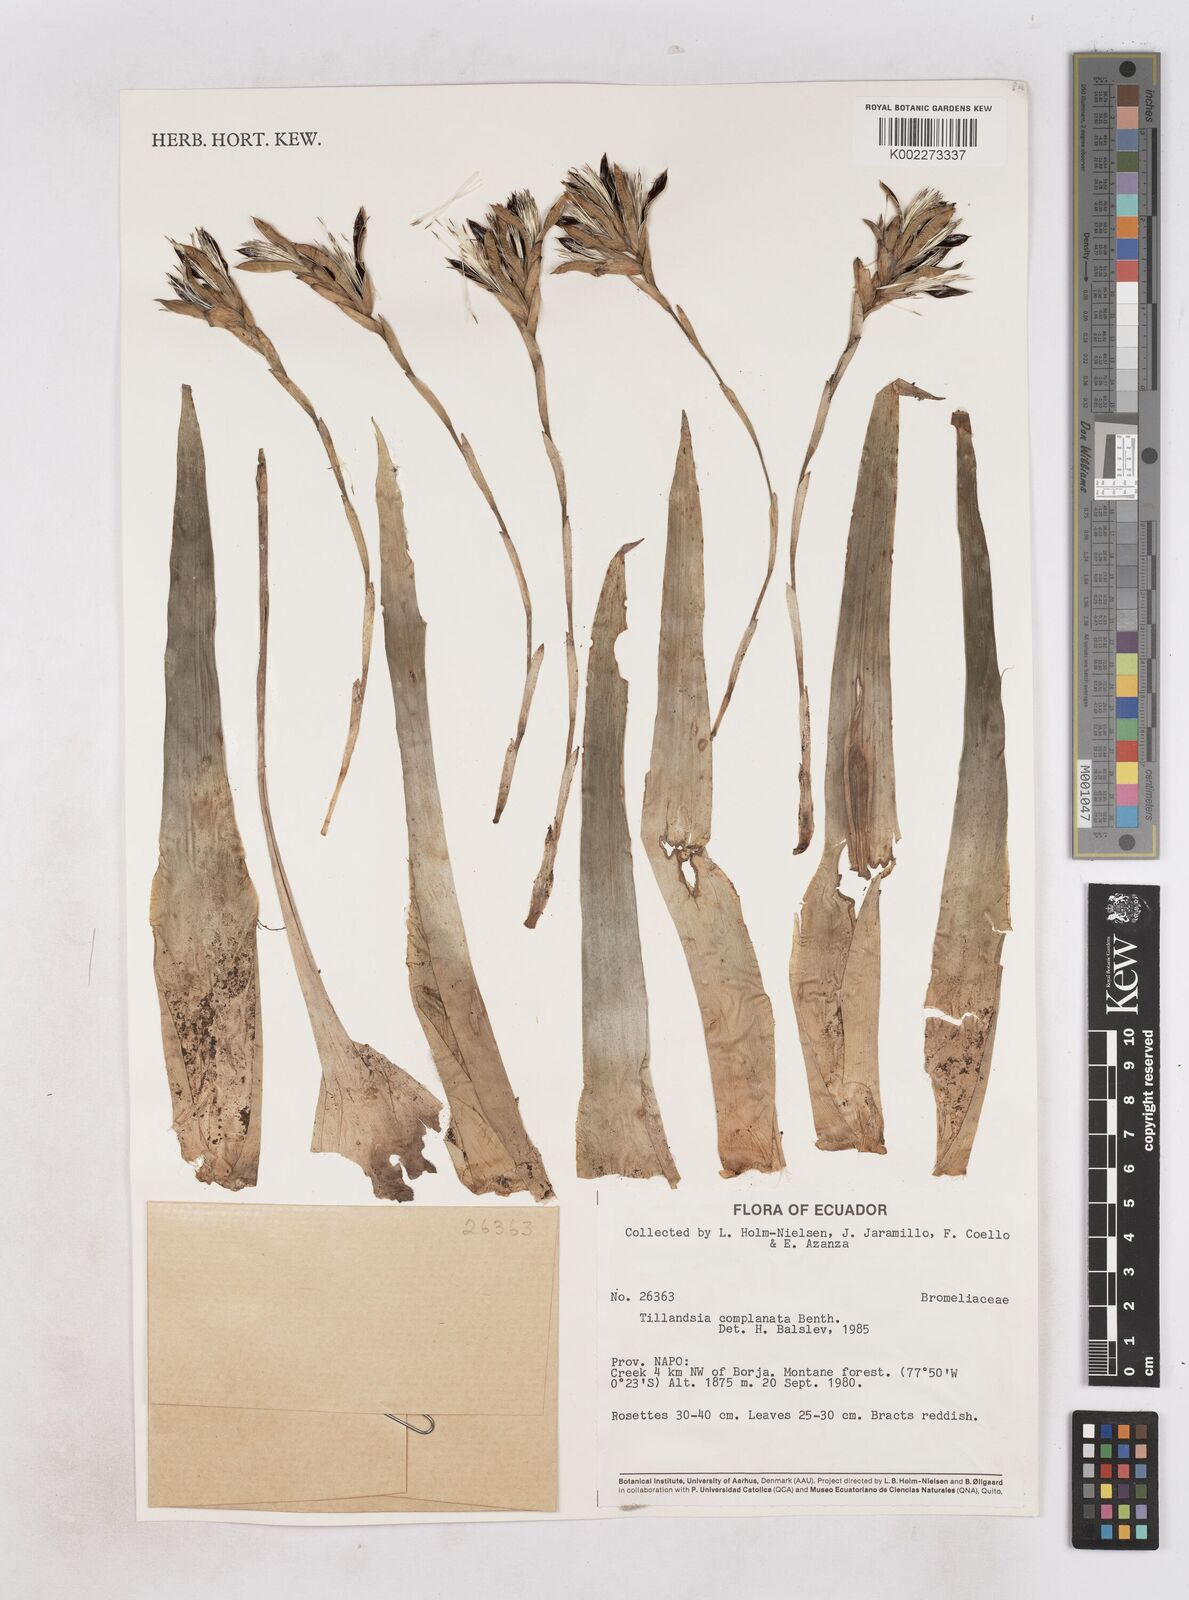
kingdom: Plantae
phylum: Tracheophyta
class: Liliopsida
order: Poales
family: Bromeliaceae
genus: Tillandsia
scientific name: Tillandsia complanata
